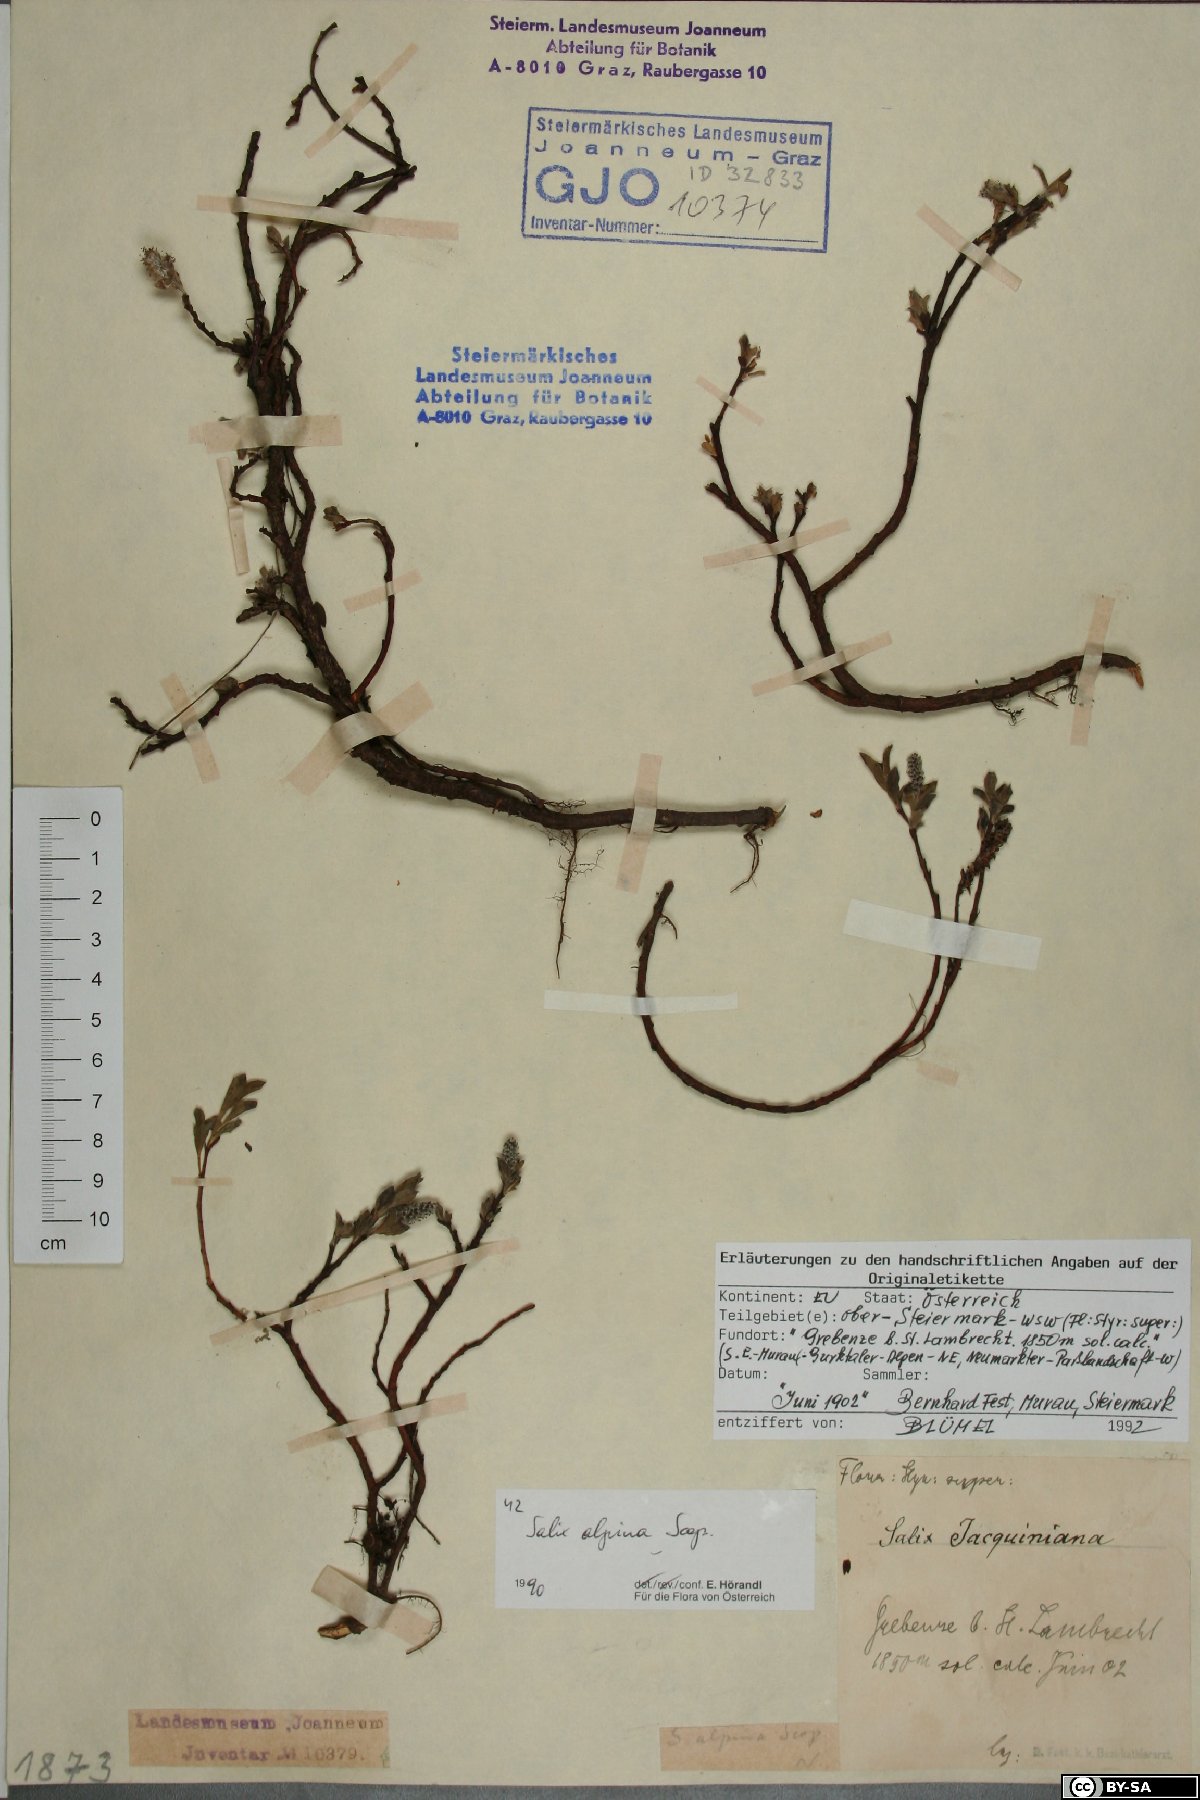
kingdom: Plantae
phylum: Tracheophyta
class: Magnoliopsida
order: Malpighiales
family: Salicaceae
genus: Salix
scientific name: Salix alpina
